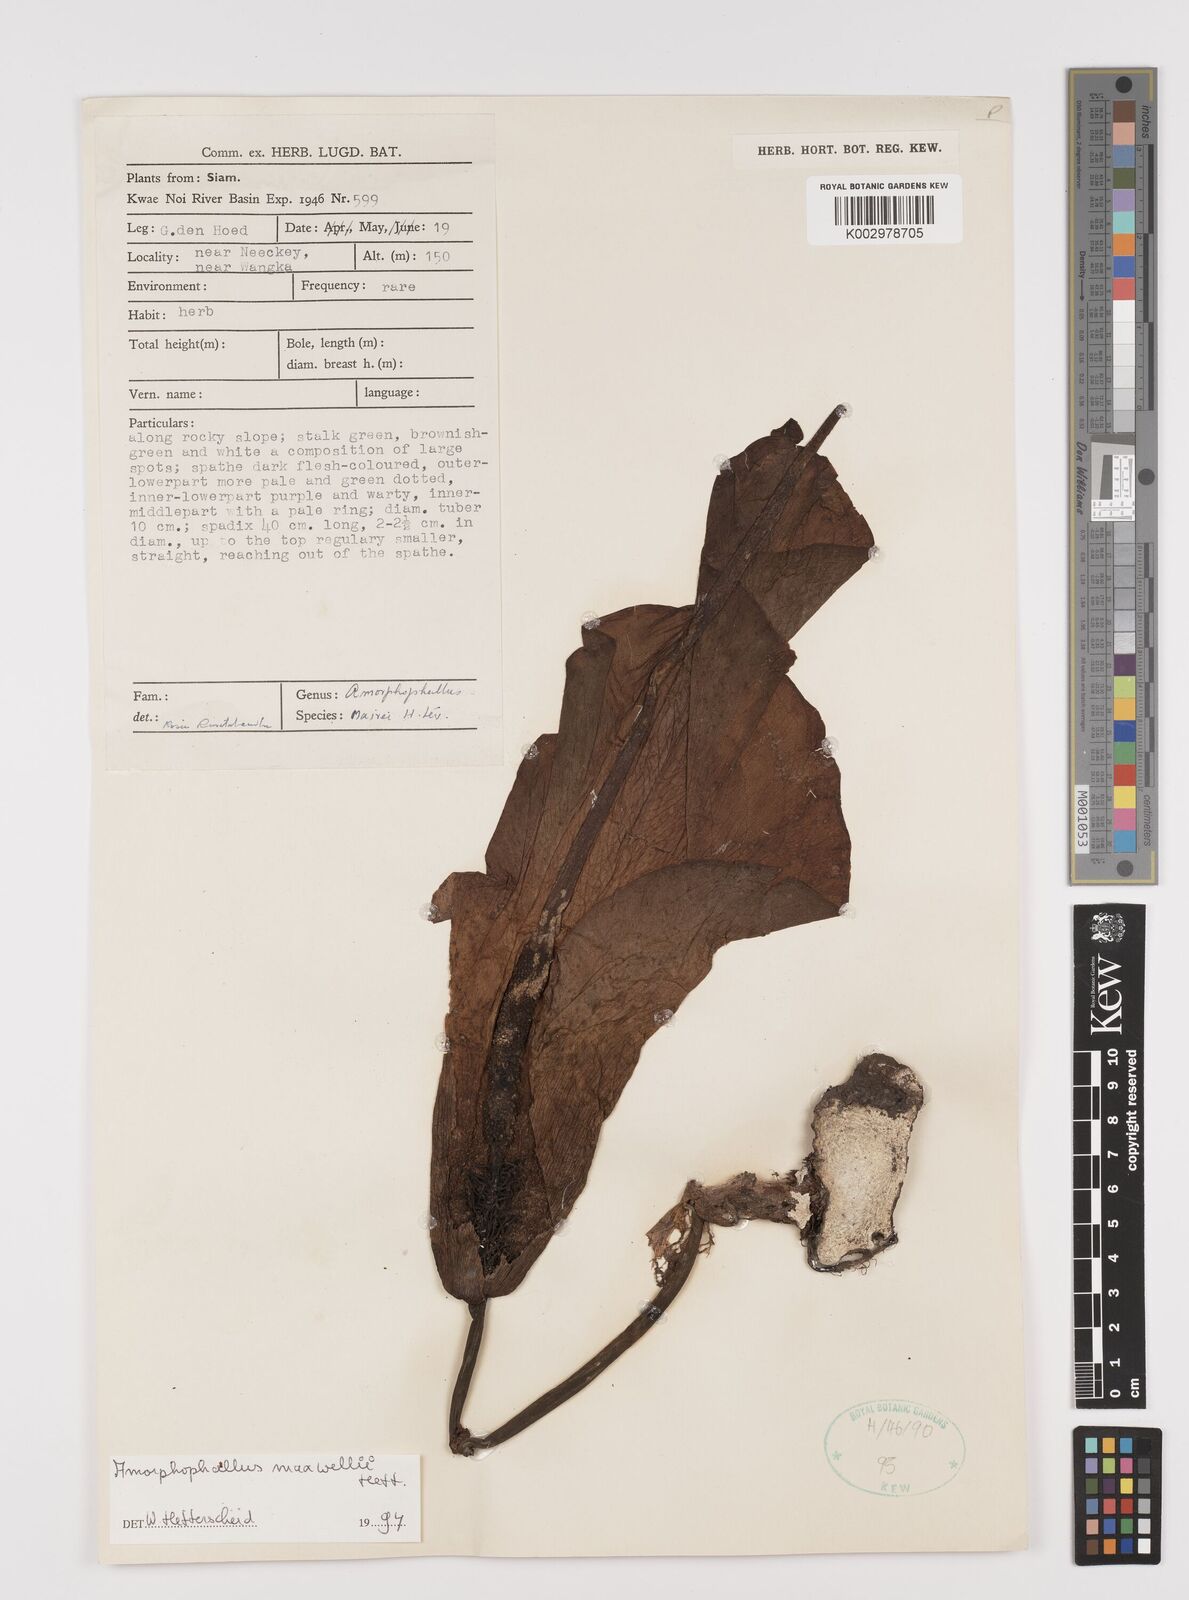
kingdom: Plantae
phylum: Tracheophyta
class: Liliopsida
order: Alismatales
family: Araceae
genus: Amorphophallus
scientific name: Amorphophallus maxwellii
